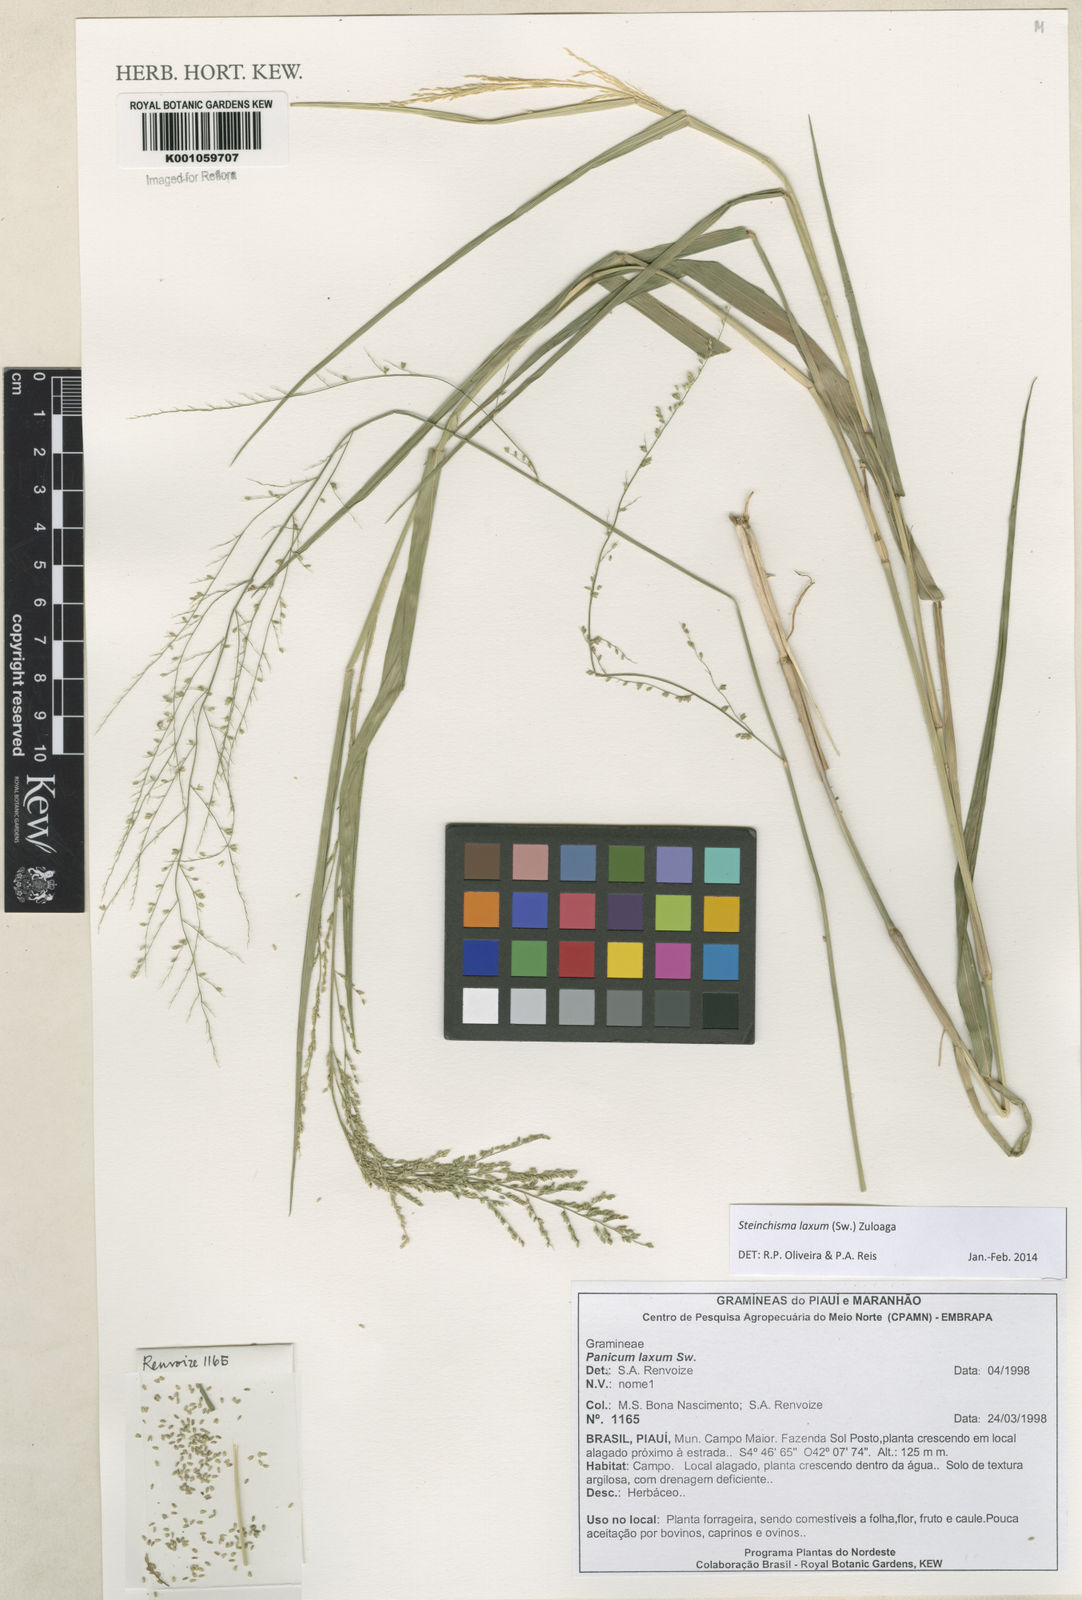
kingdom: Plantae
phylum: Tracheophyta
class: Liliopsida
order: Poales
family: Poaceae
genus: Steinchisma
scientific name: Steinchisma laxum
